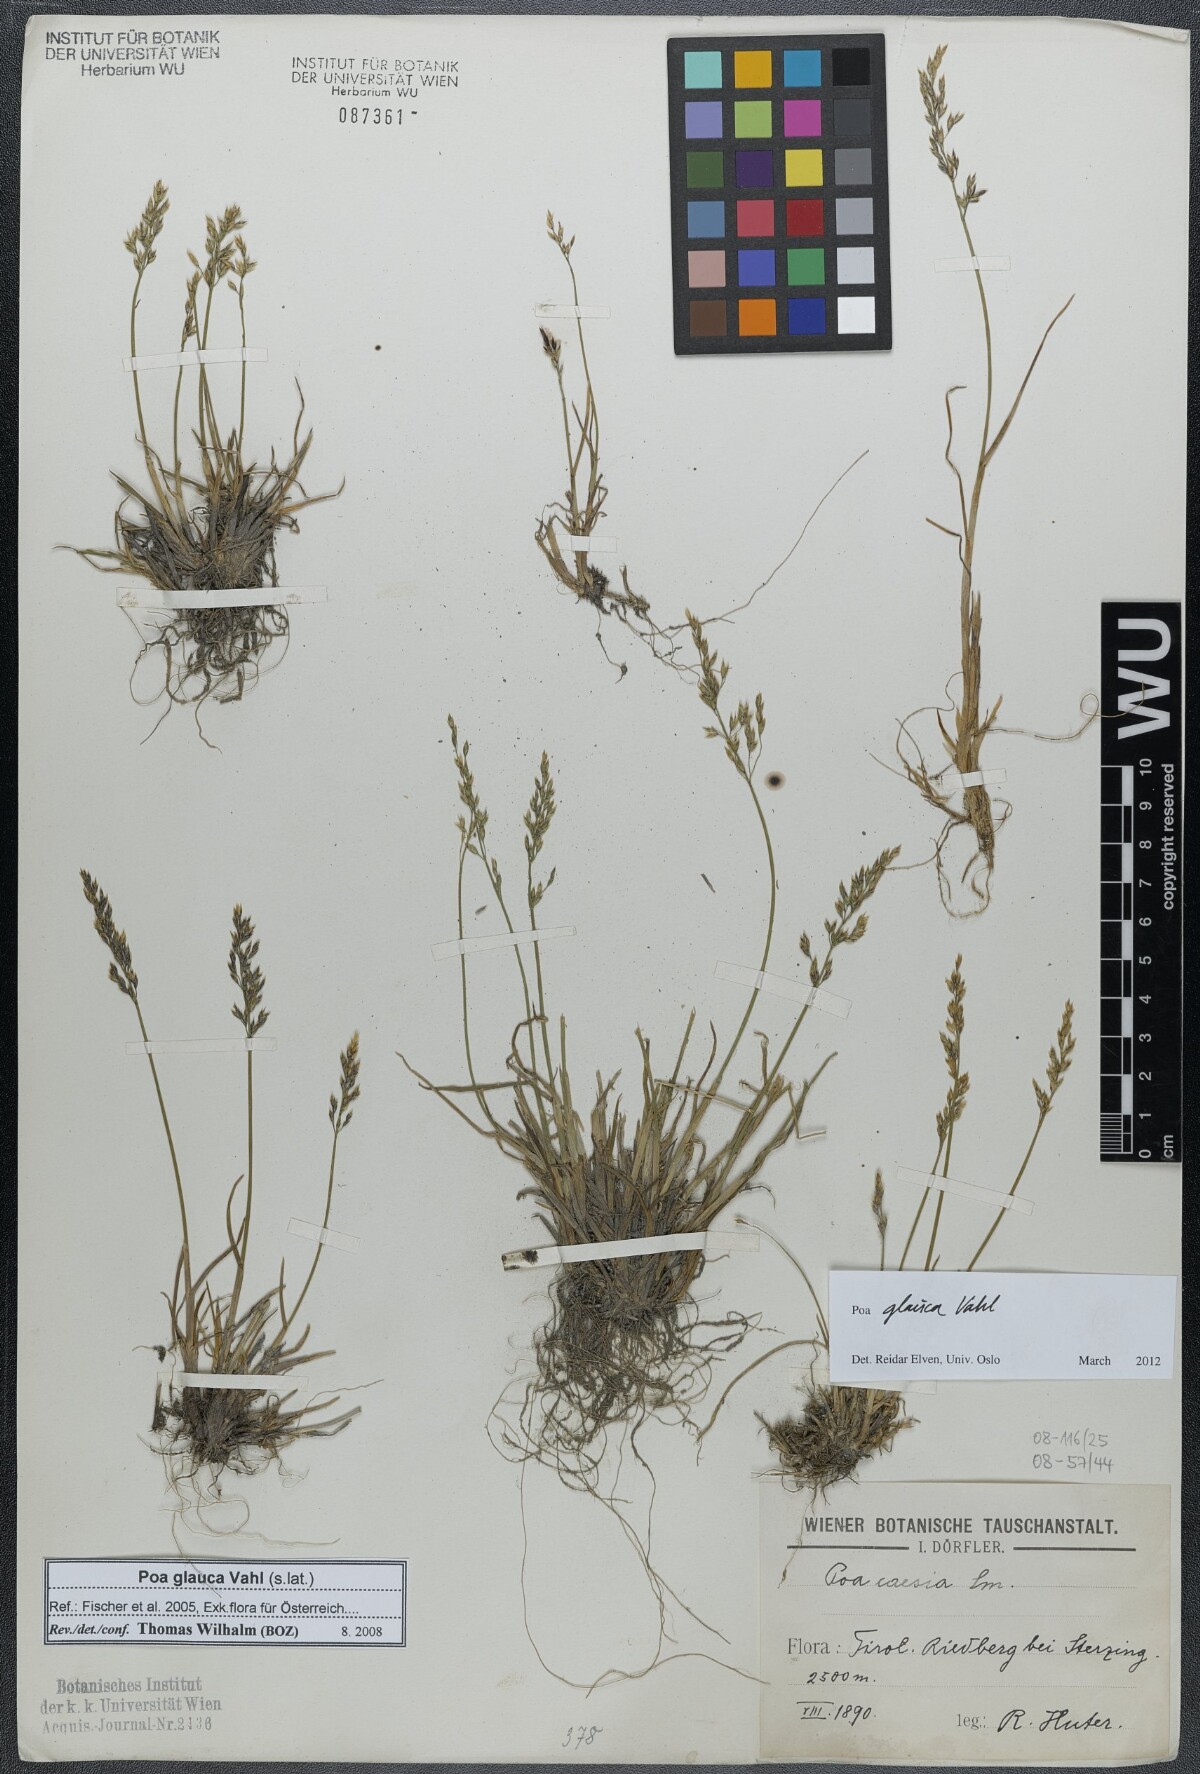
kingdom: Plantae
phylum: Tracheophyta
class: Liliopsida
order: Poales
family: Poaceae
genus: Poa
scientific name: Poa glauca
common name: Glaucous bluegrass
